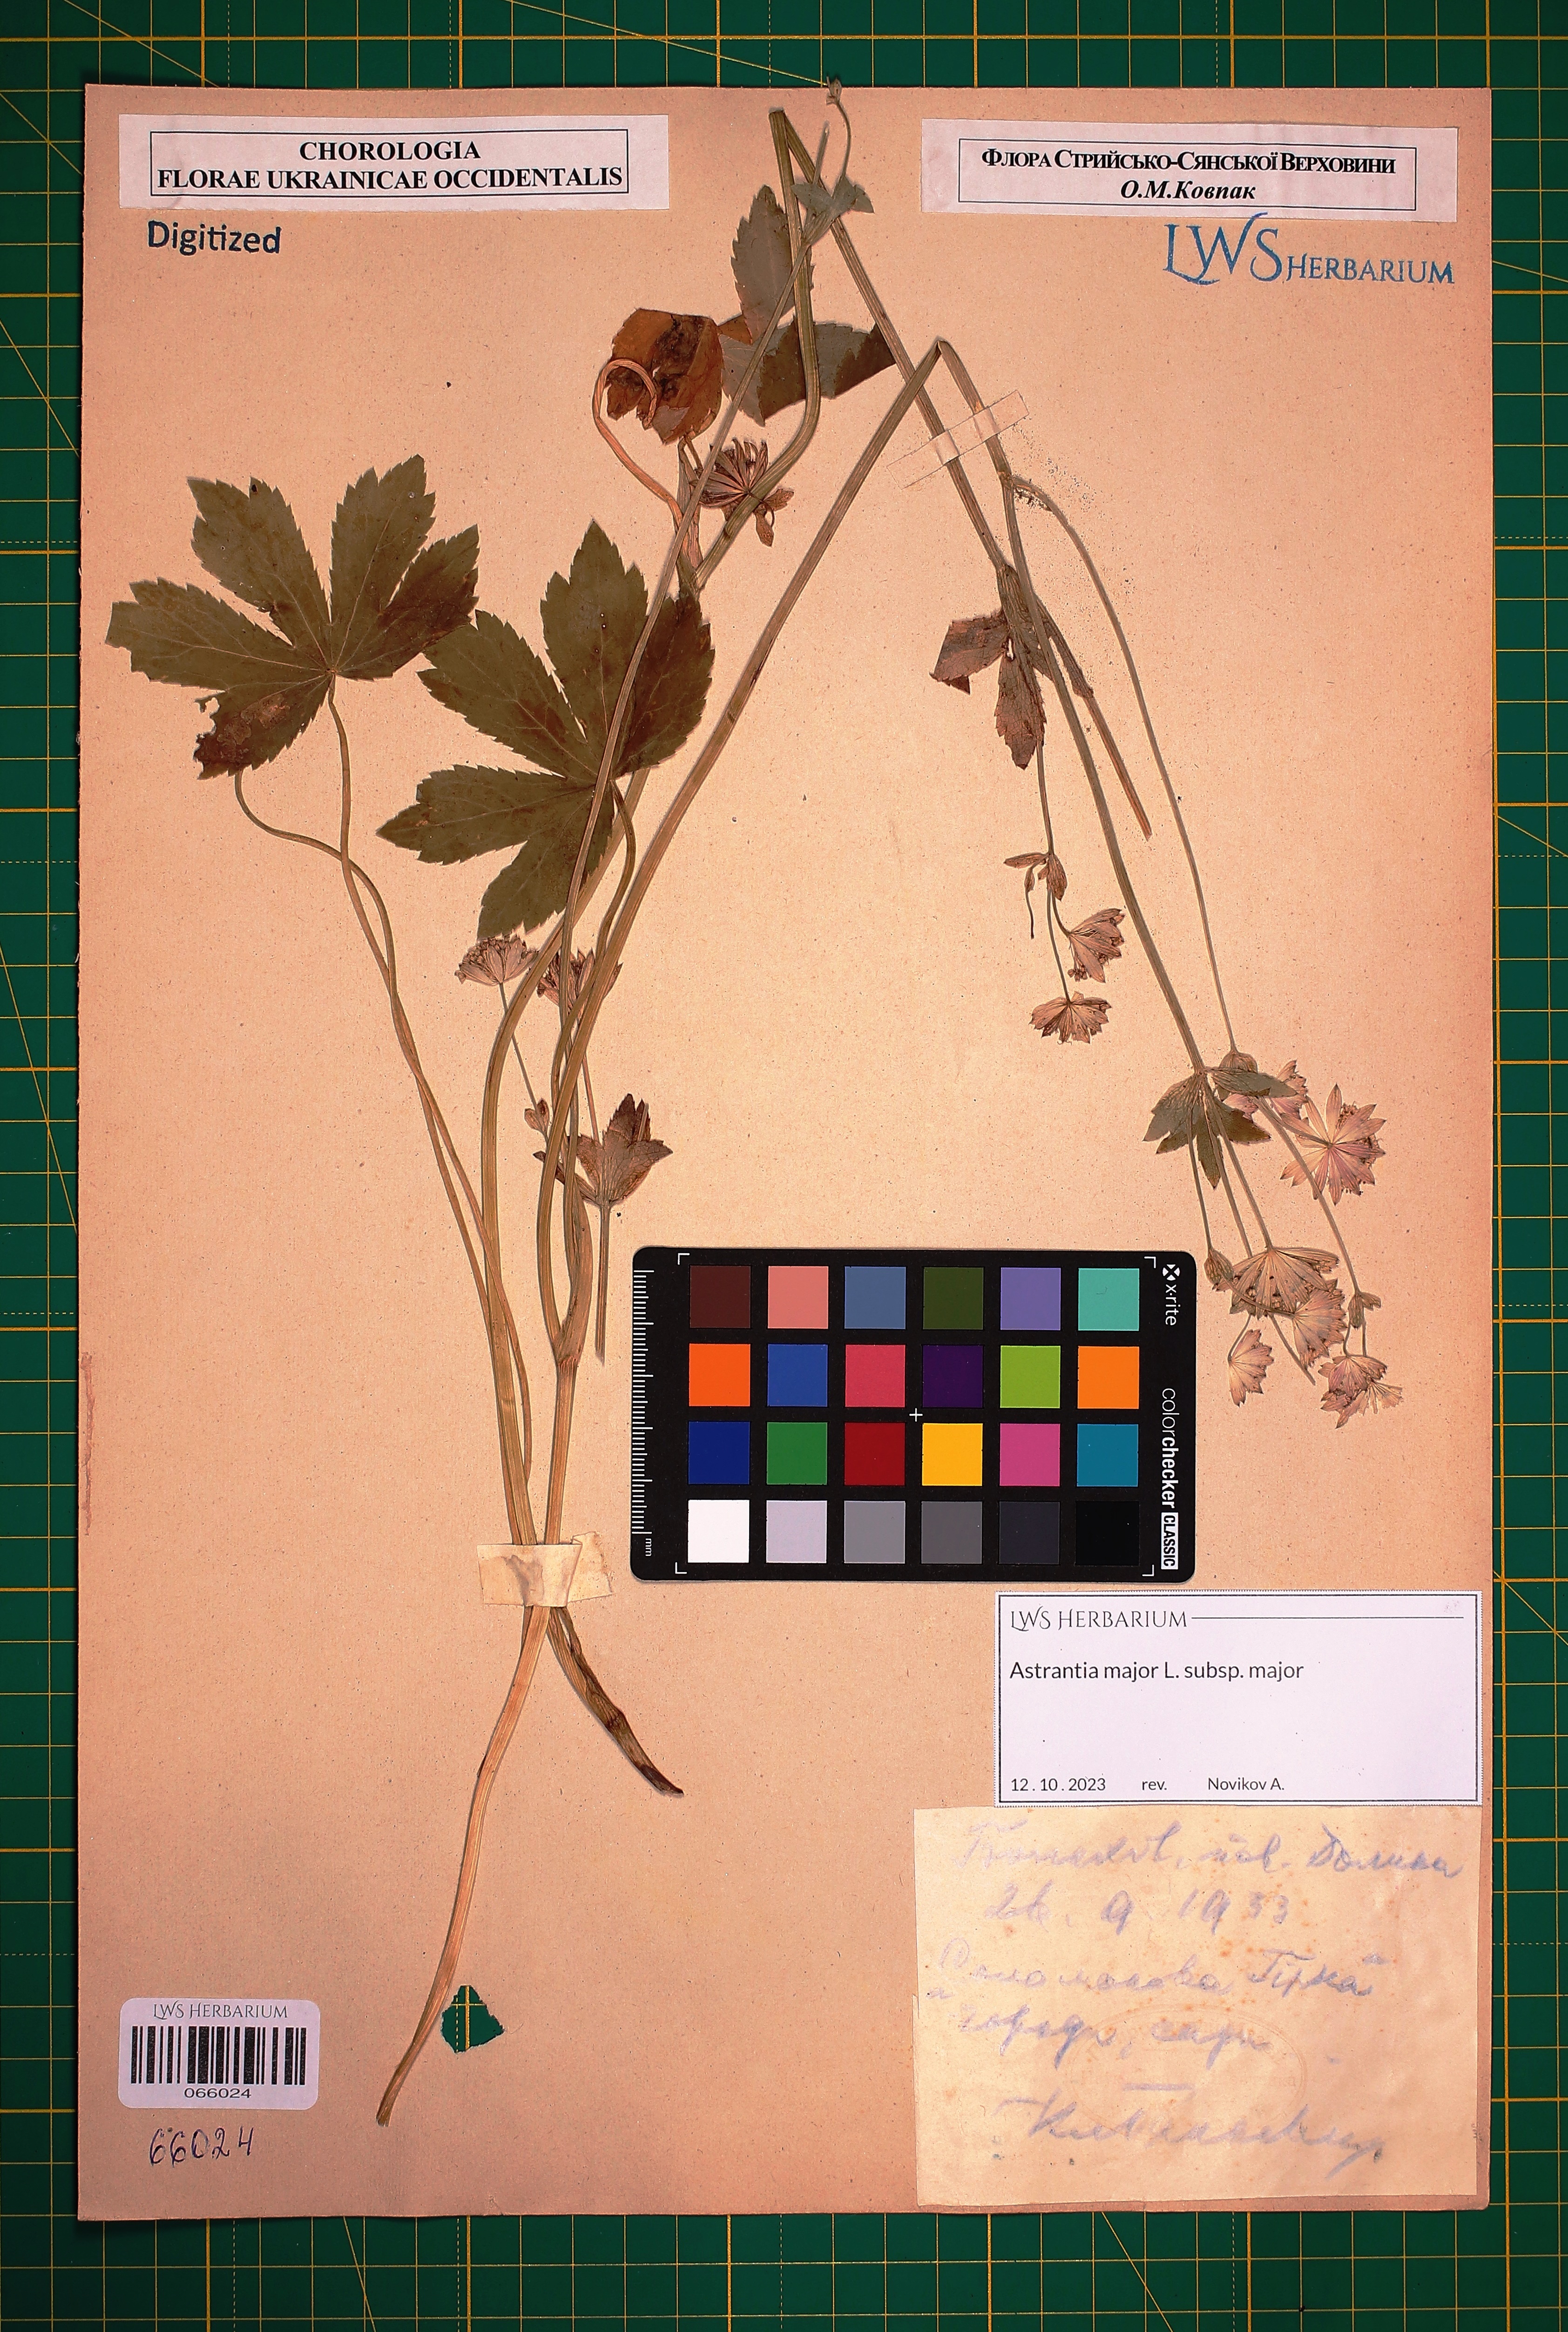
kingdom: Plantae
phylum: Tracheophyta
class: Magnoliopsida
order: Apiales
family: Apiaceae
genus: Astrantia
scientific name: Astrantia major
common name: Greater masterwort
